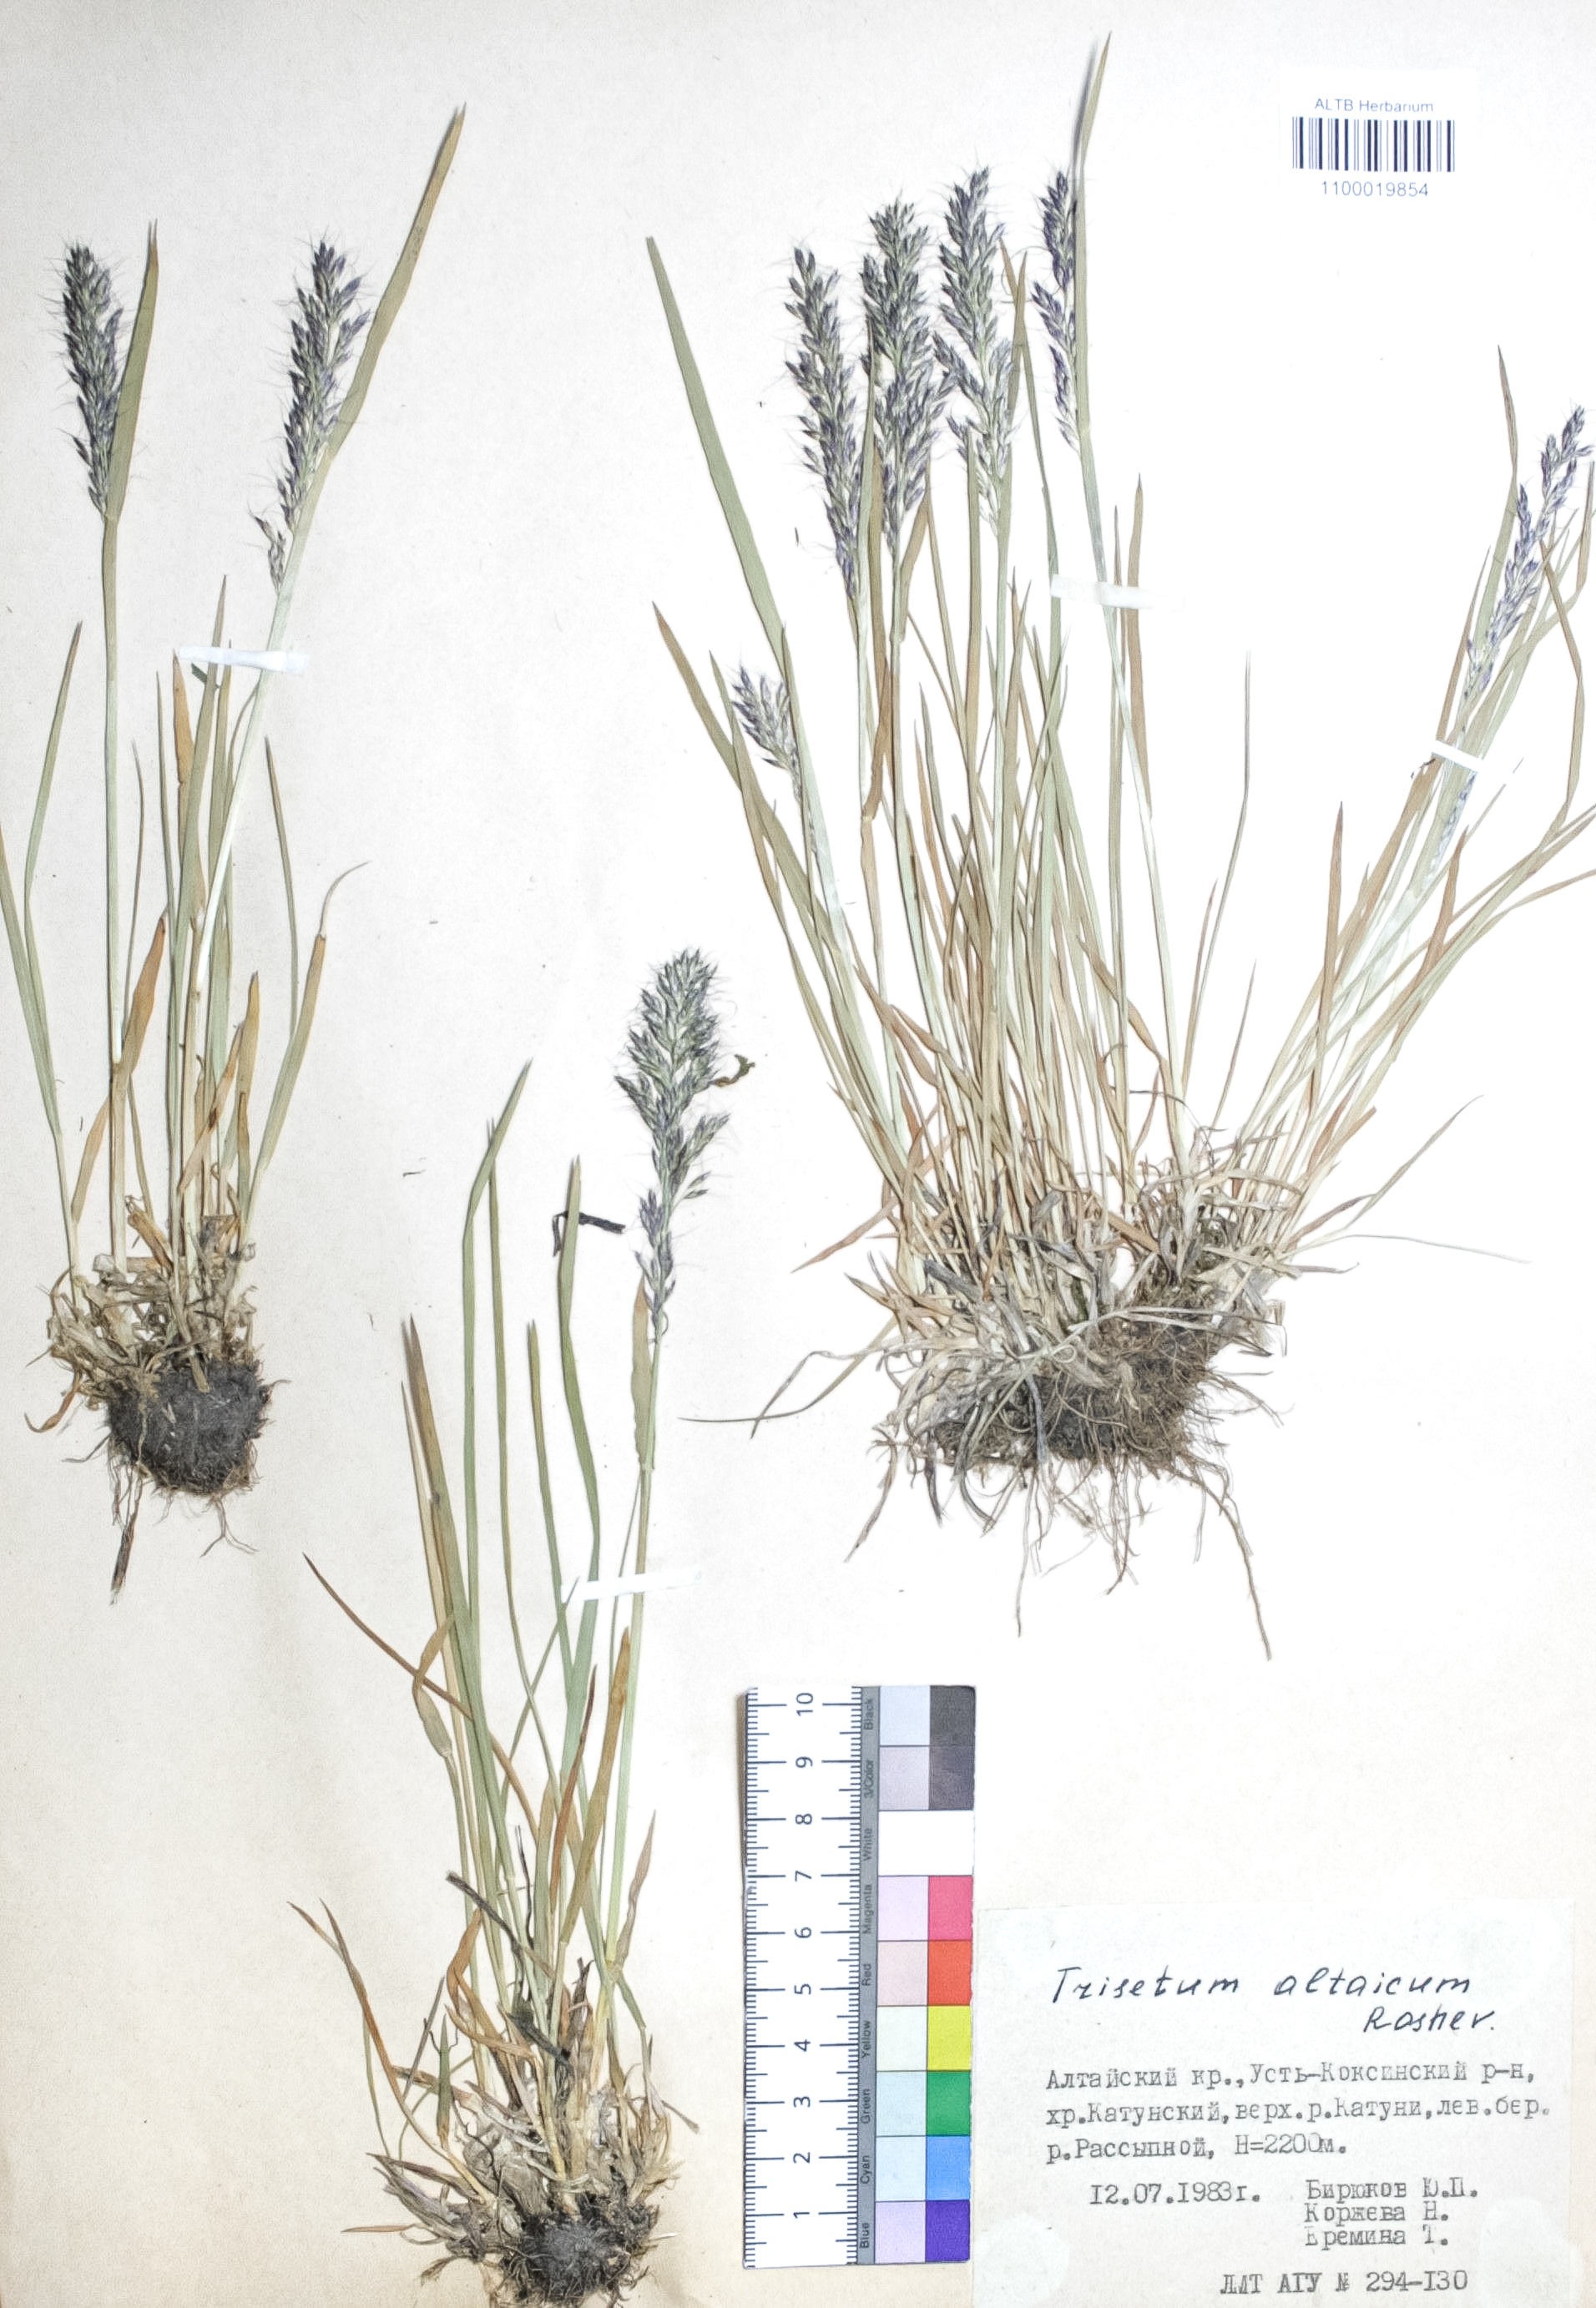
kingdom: Plantae
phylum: Tracheophyta
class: Liliopsida
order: Poales
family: Poaceae
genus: Trisetum
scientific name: Trisetum altaicum
